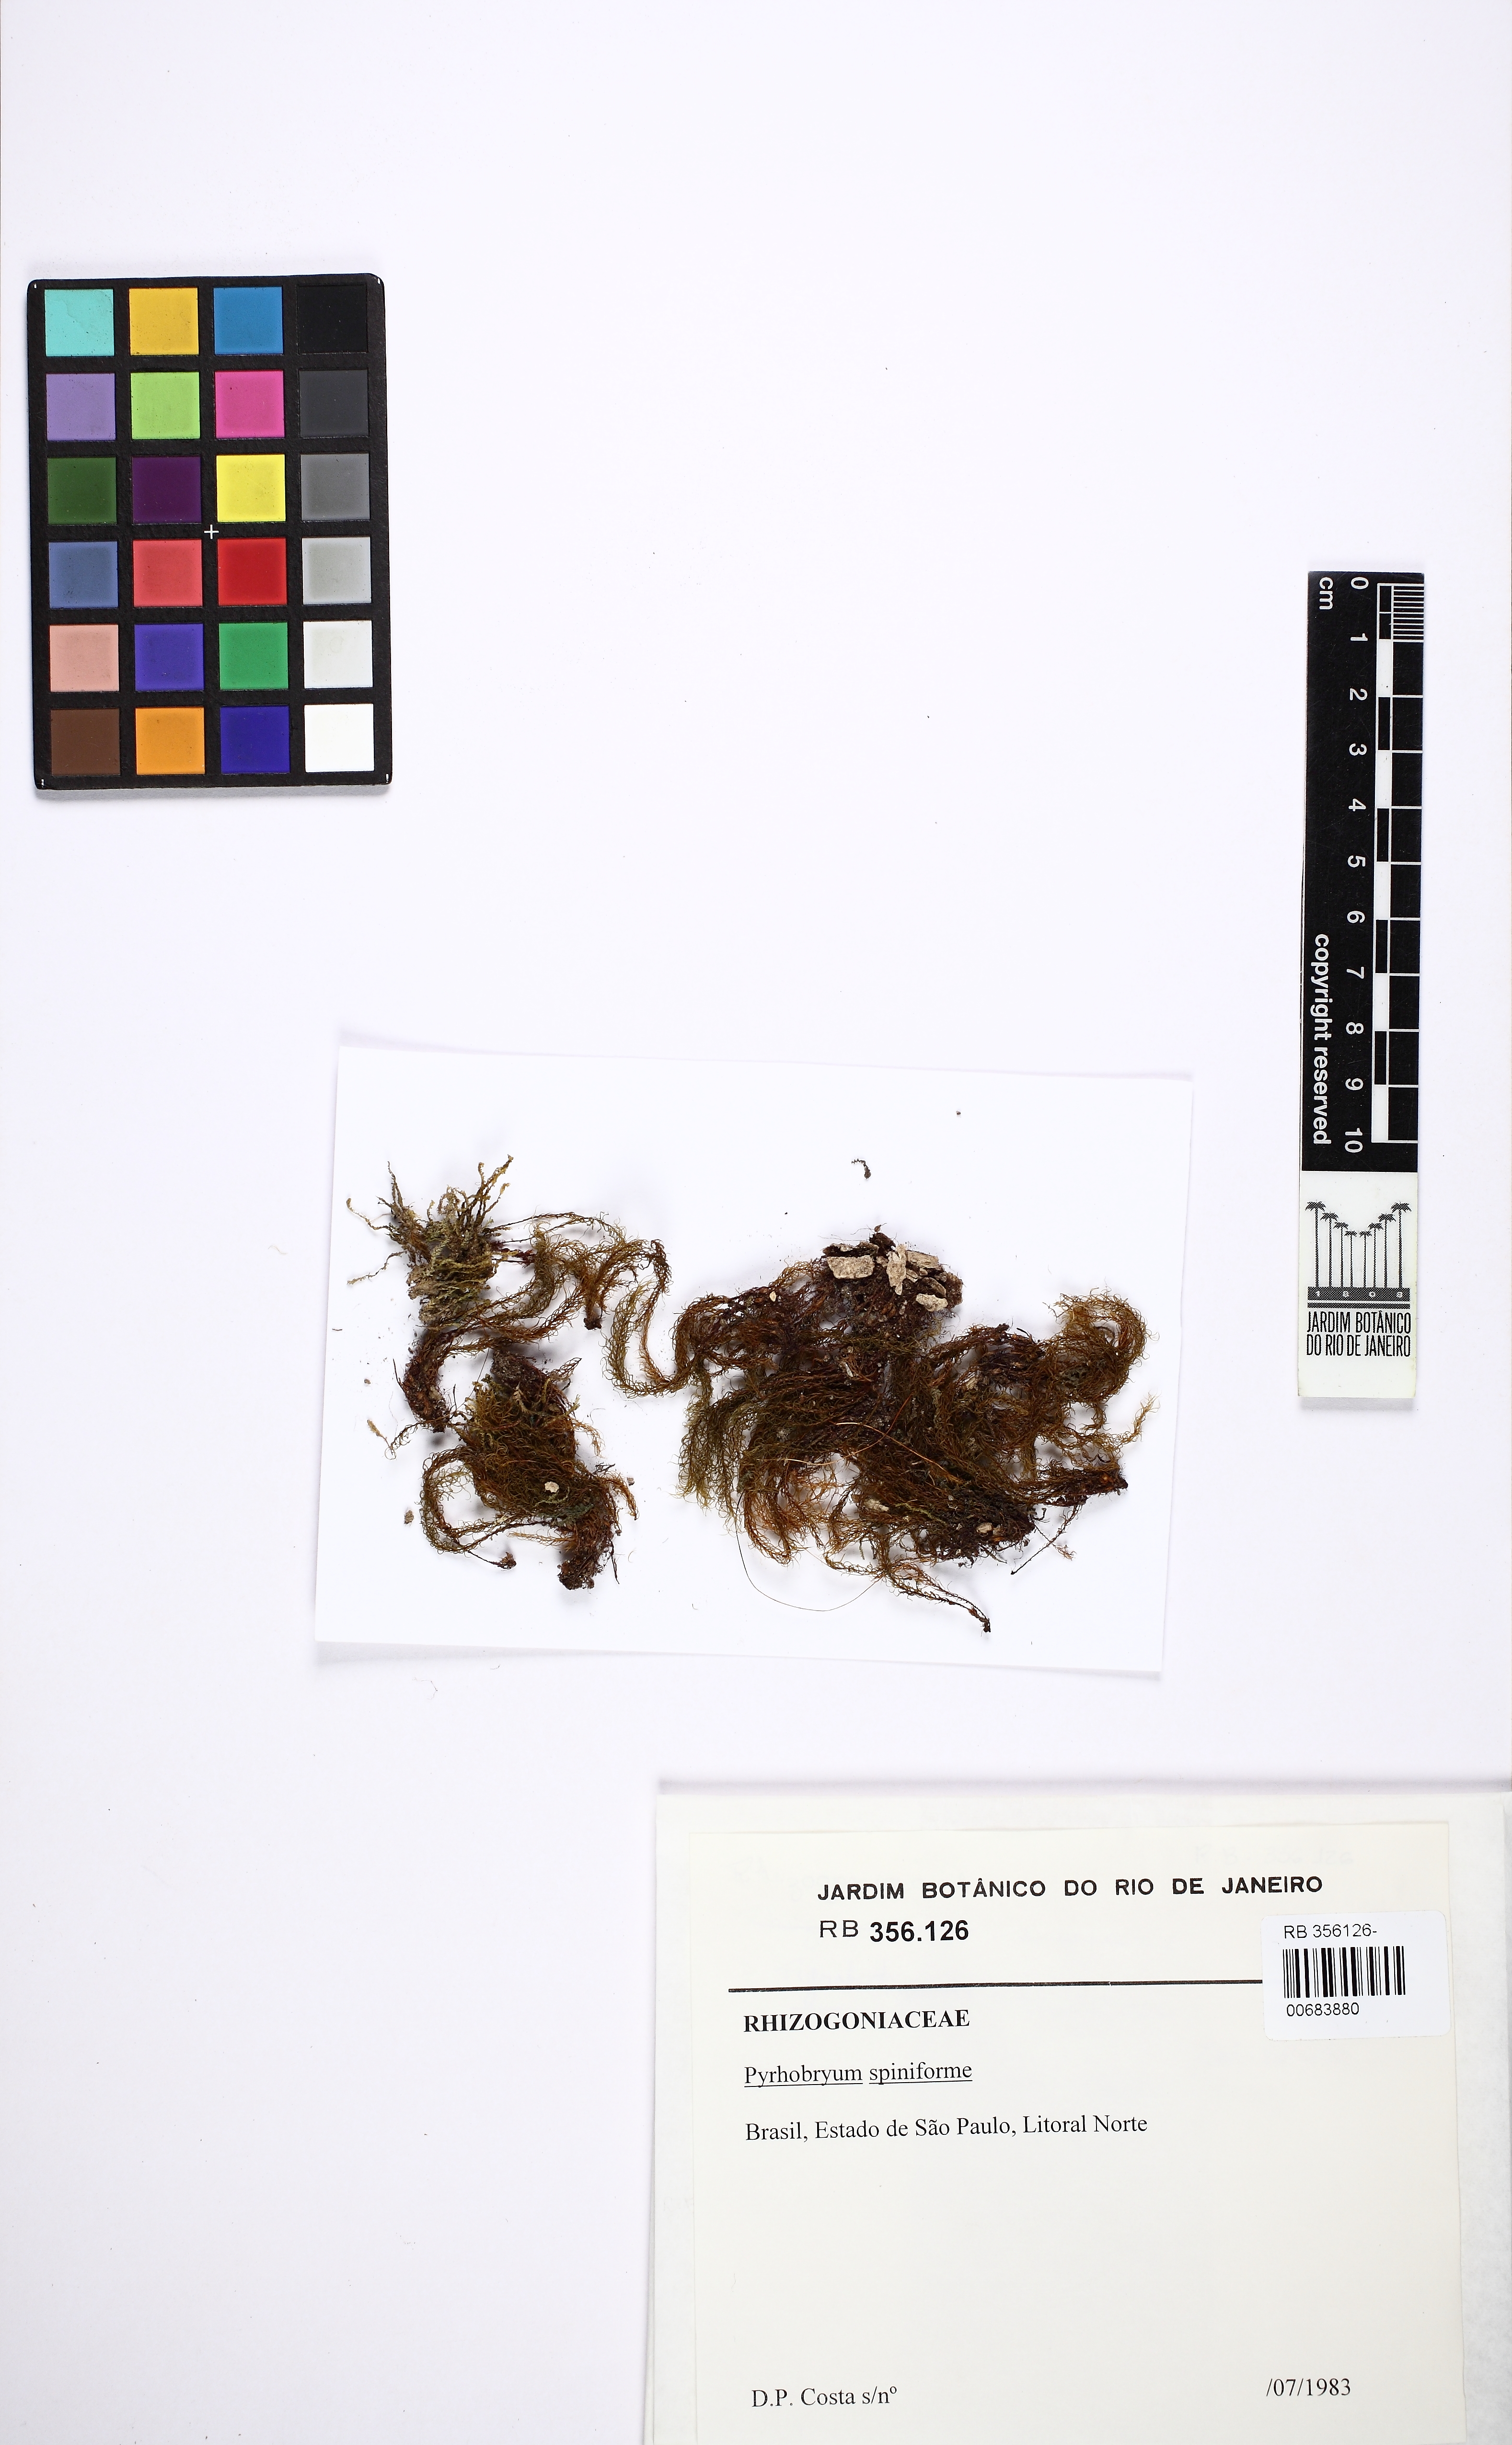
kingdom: Plantae
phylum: Bryophyta
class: Bryopsida
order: Rhizogoniales
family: Calomniaceae
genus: Pyrrhobryum
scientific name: Pyrrhobryum spiniforme
